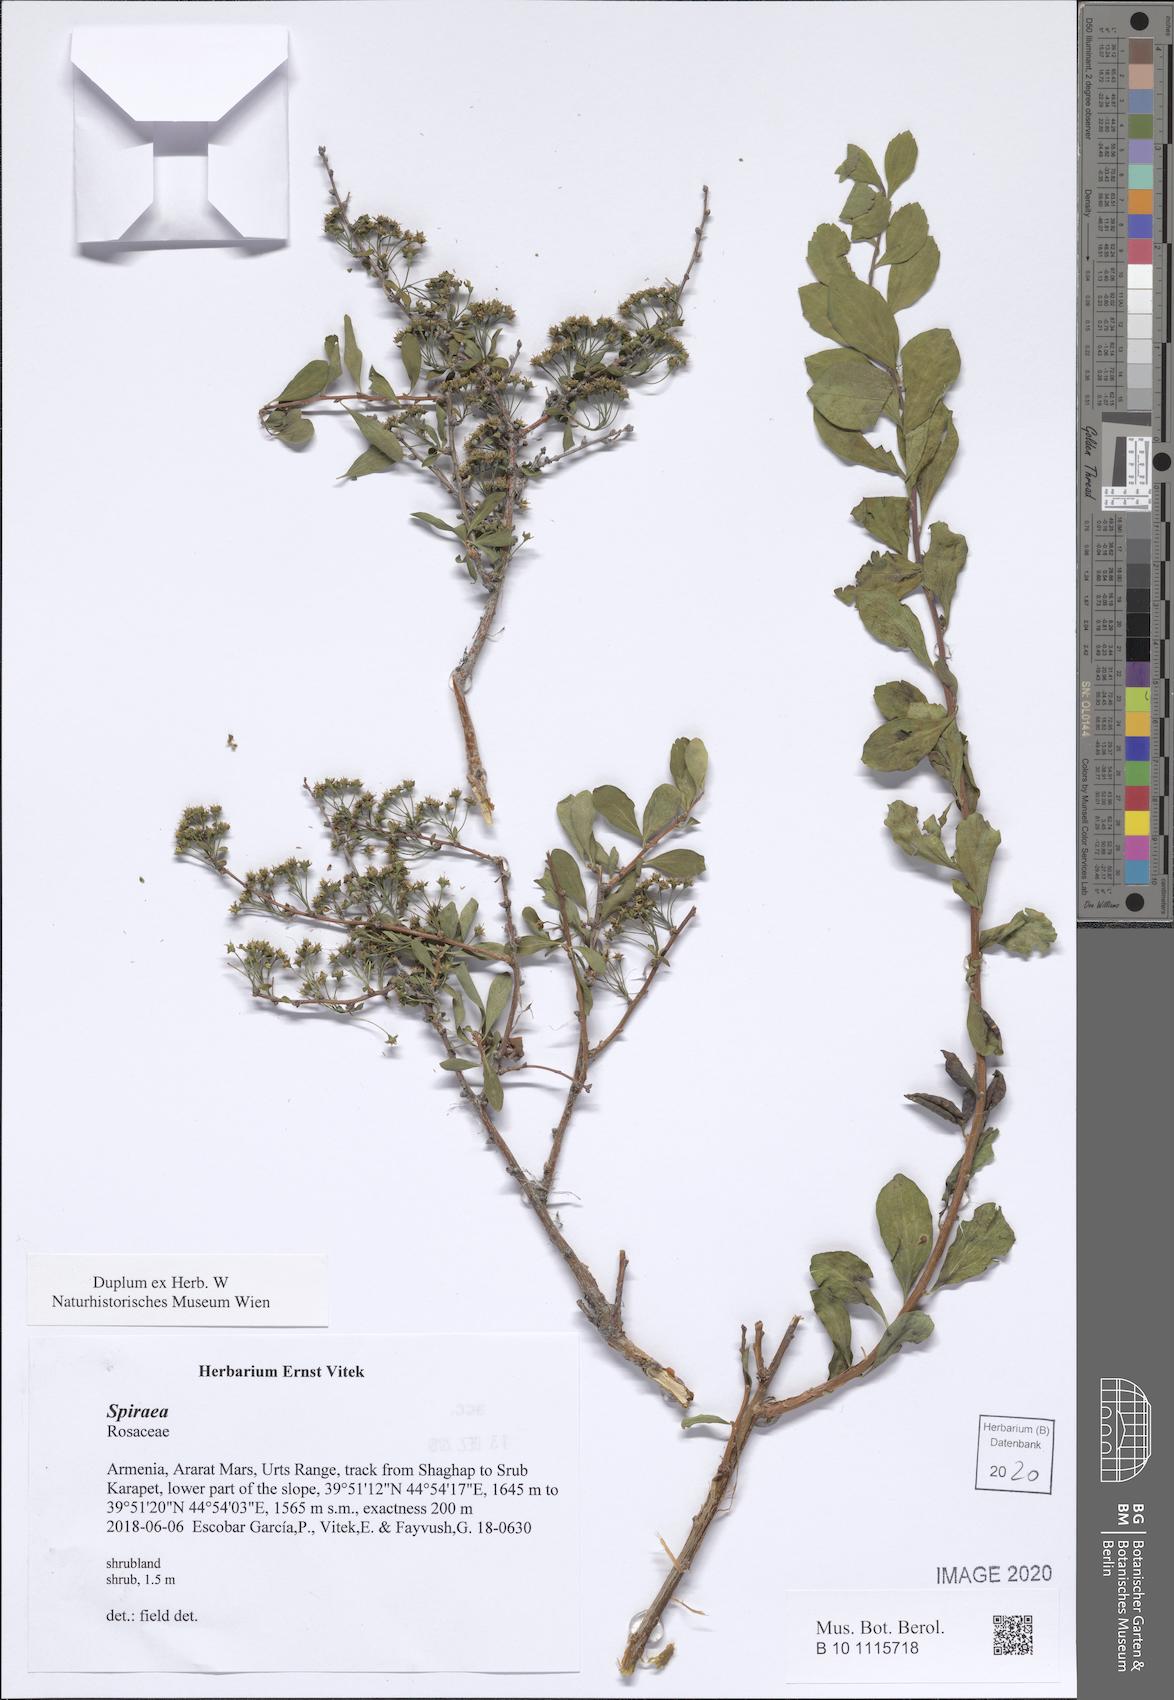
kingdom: Plantae
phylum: Tracheophyta
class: Magnoliopsida
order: Rosales
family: Rosaceae
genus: Spiraea
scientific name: Spiraea
